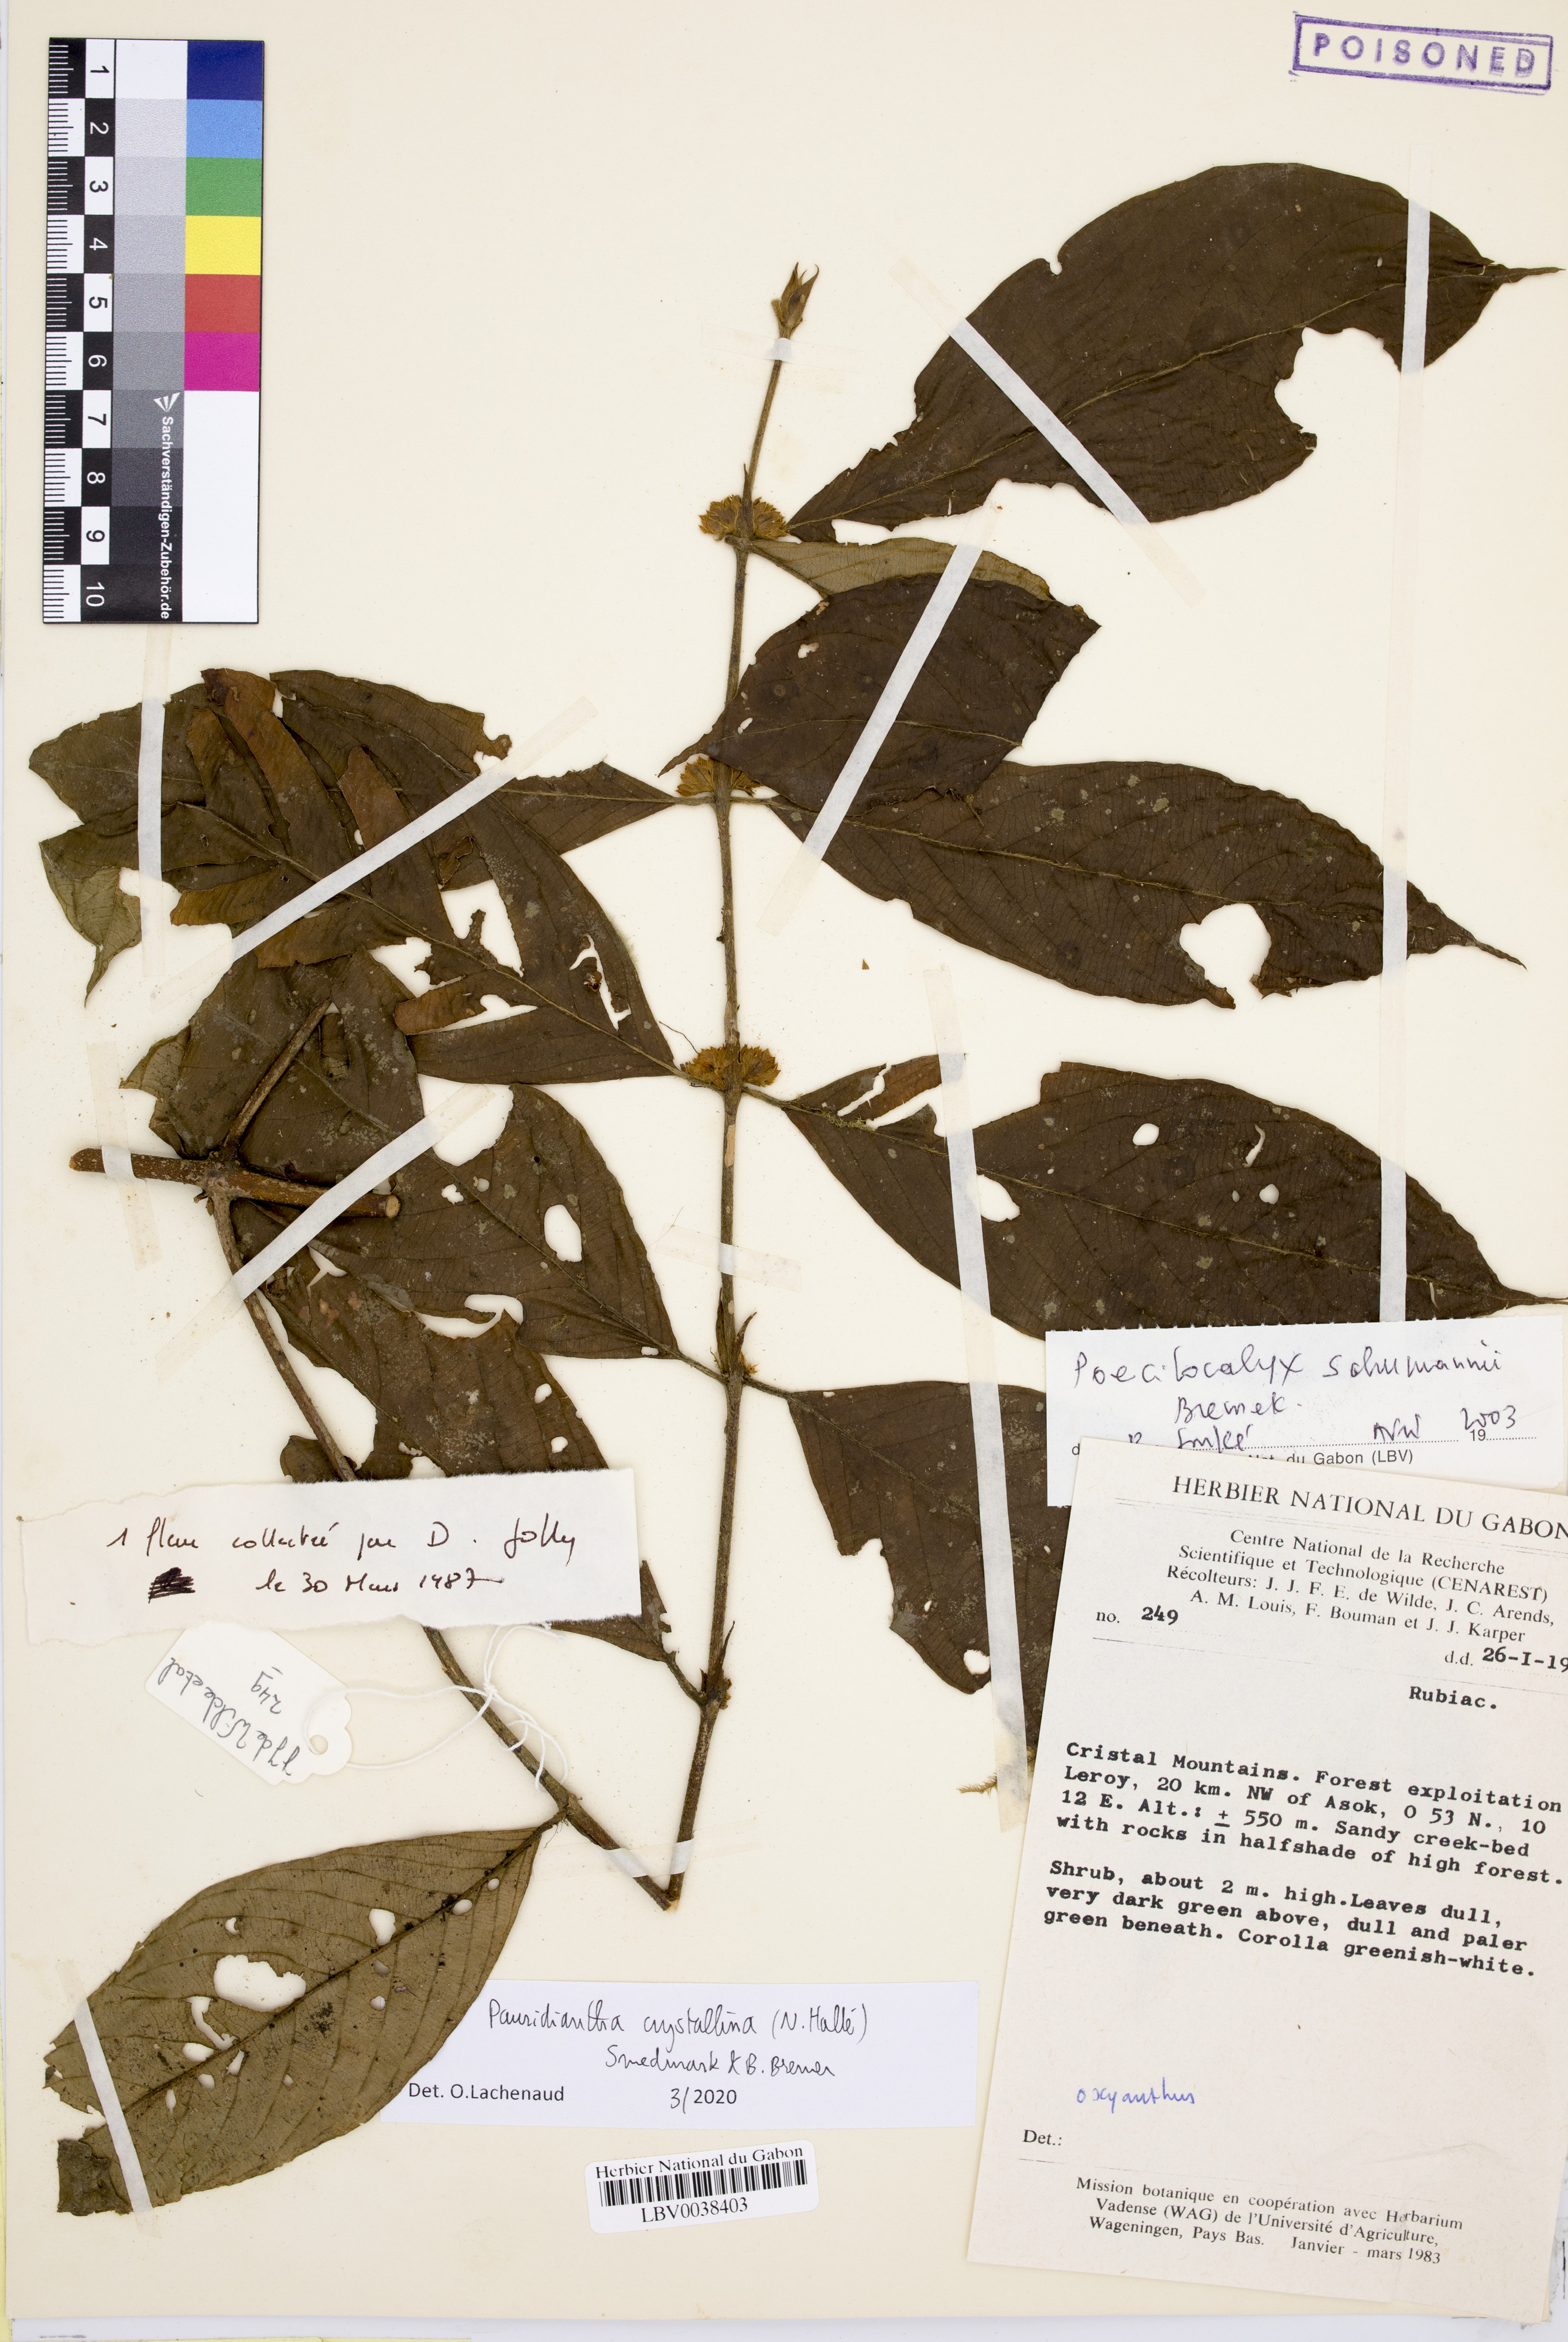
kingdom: Plantae
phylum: Tracheophyta
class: Magnoliopsida
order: Gentianales
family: Rubiaceae
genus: Pauridiantha
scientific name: Pauridiantha schumannii
